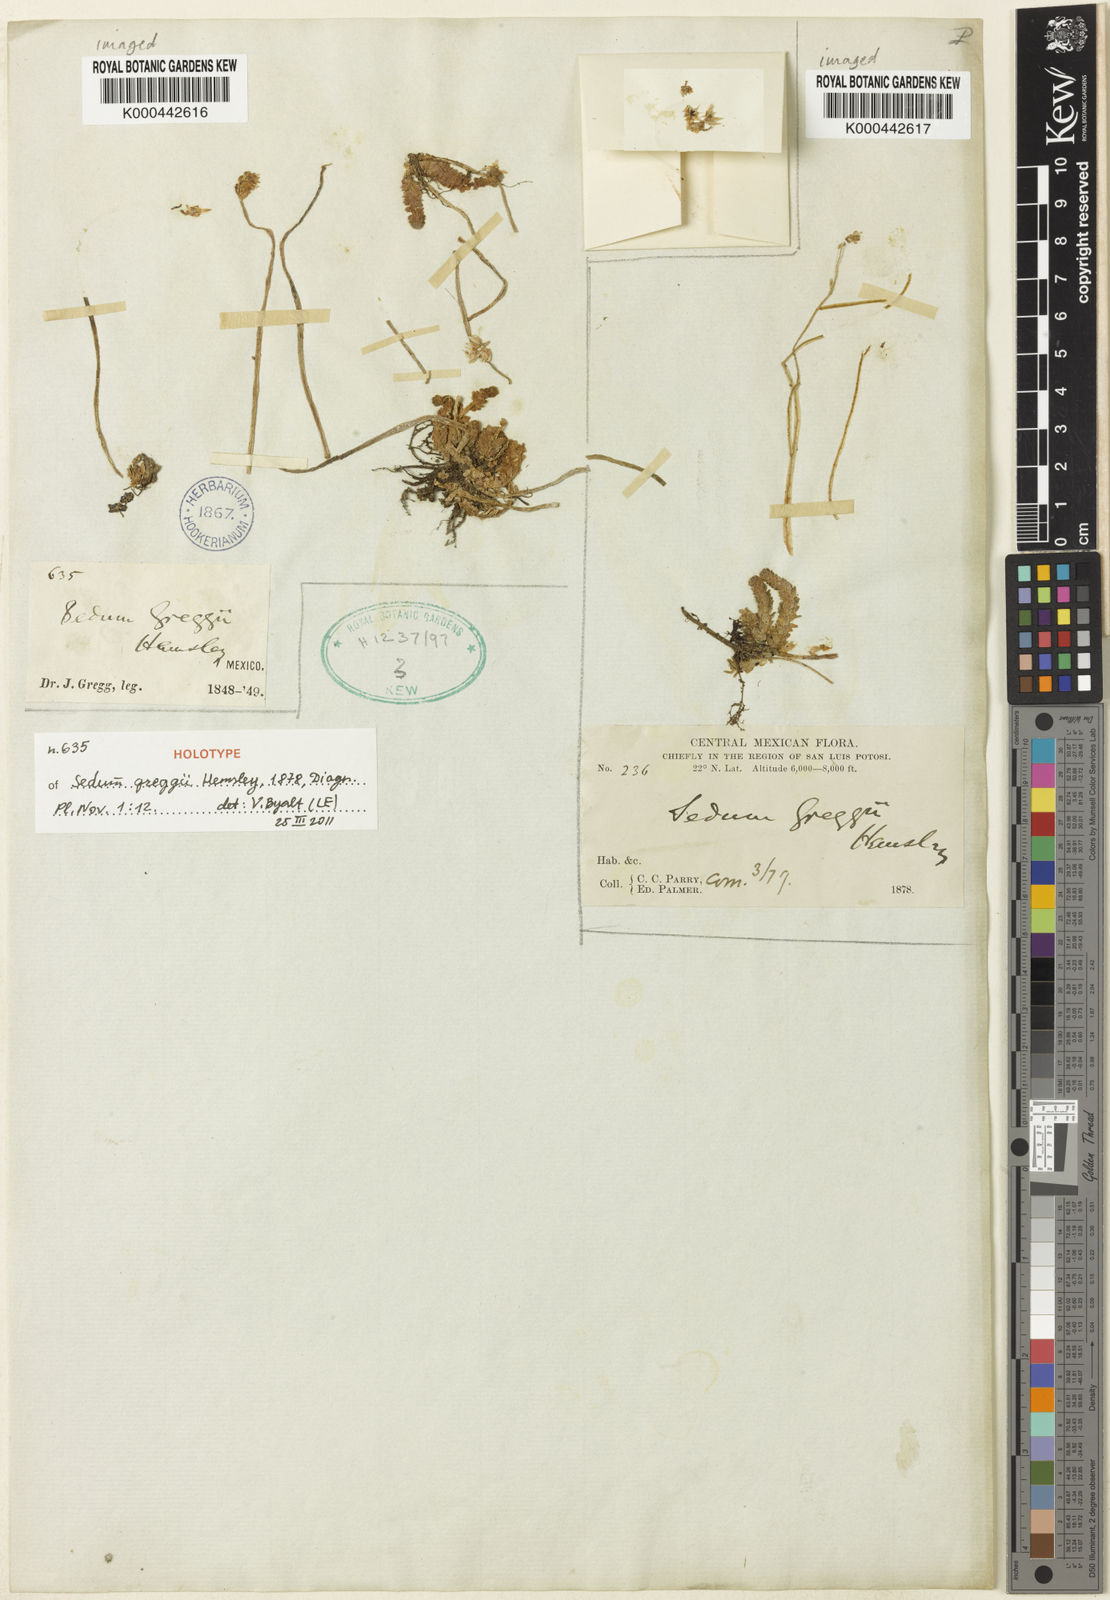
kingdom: Plantae
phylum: Tracheophyta
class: Magnoliopsida
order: Saxifragales
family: Crassulaceae
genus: Sedum
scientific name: Sedum greggii
